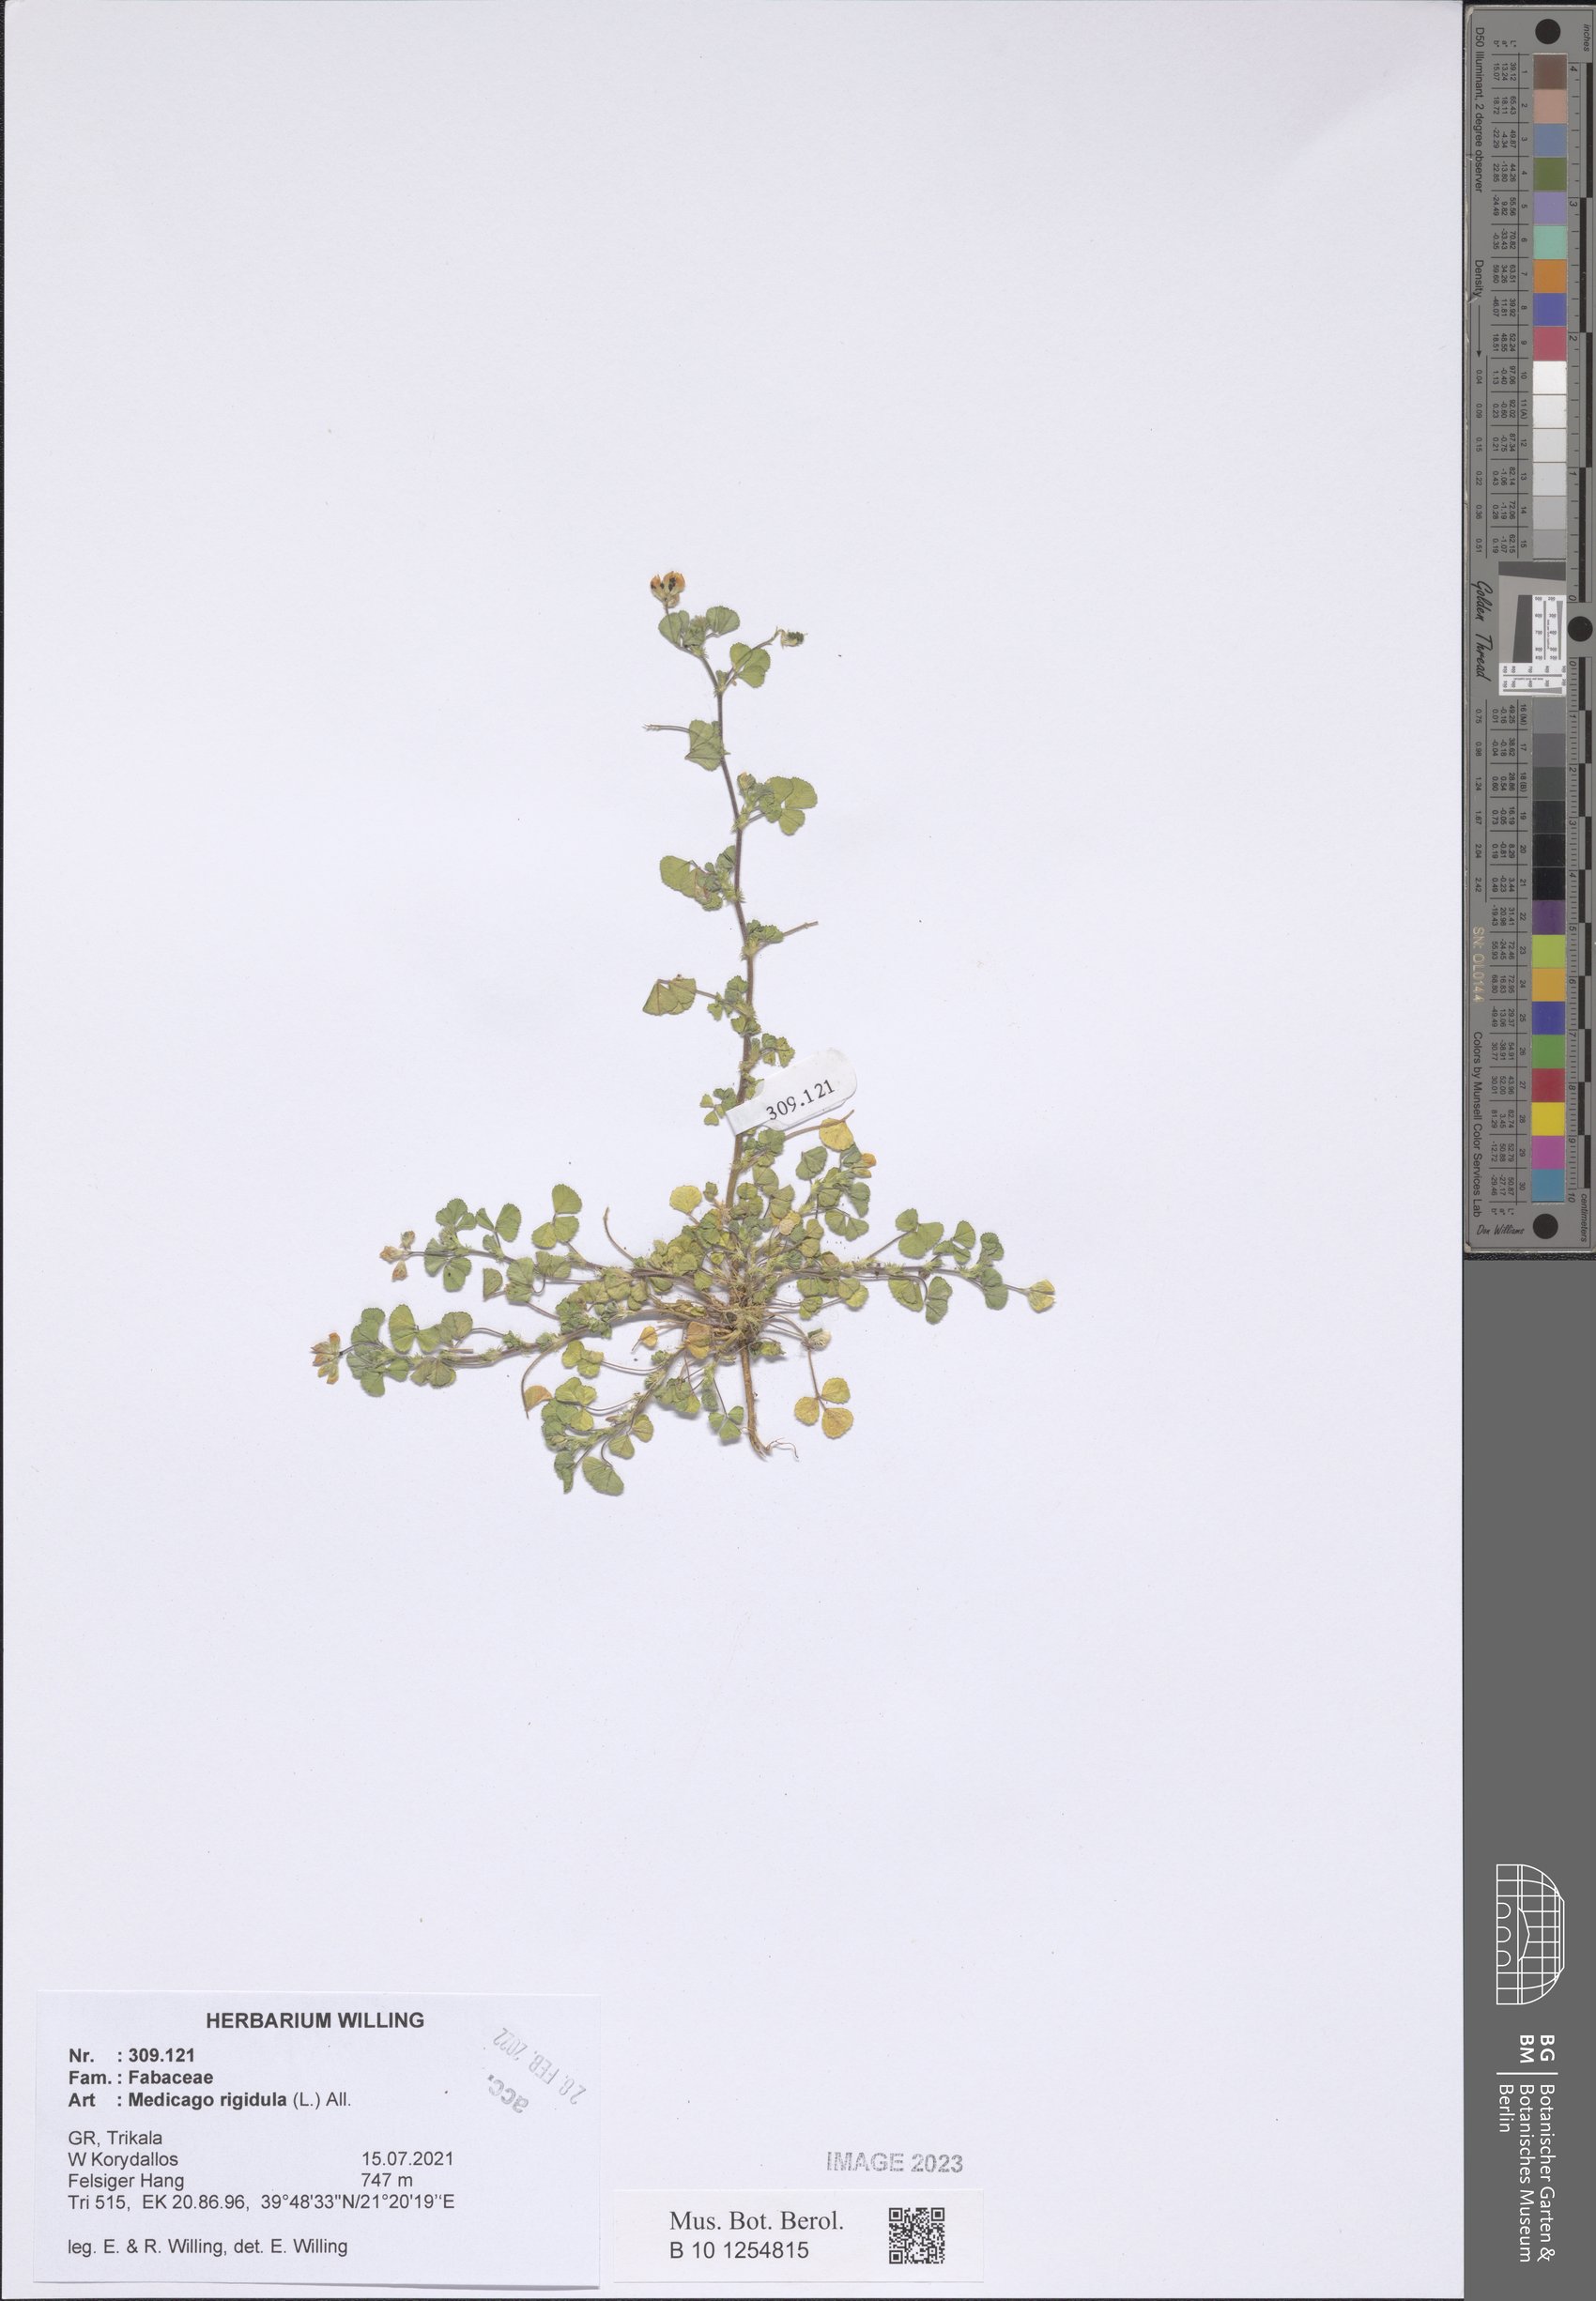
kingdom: Plantae
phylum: Tracheophyta
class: Magnoliopsida
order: Fabales
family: Fabaceae
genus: Medicago
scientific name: Medicago rigidula
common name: Tifton medic
